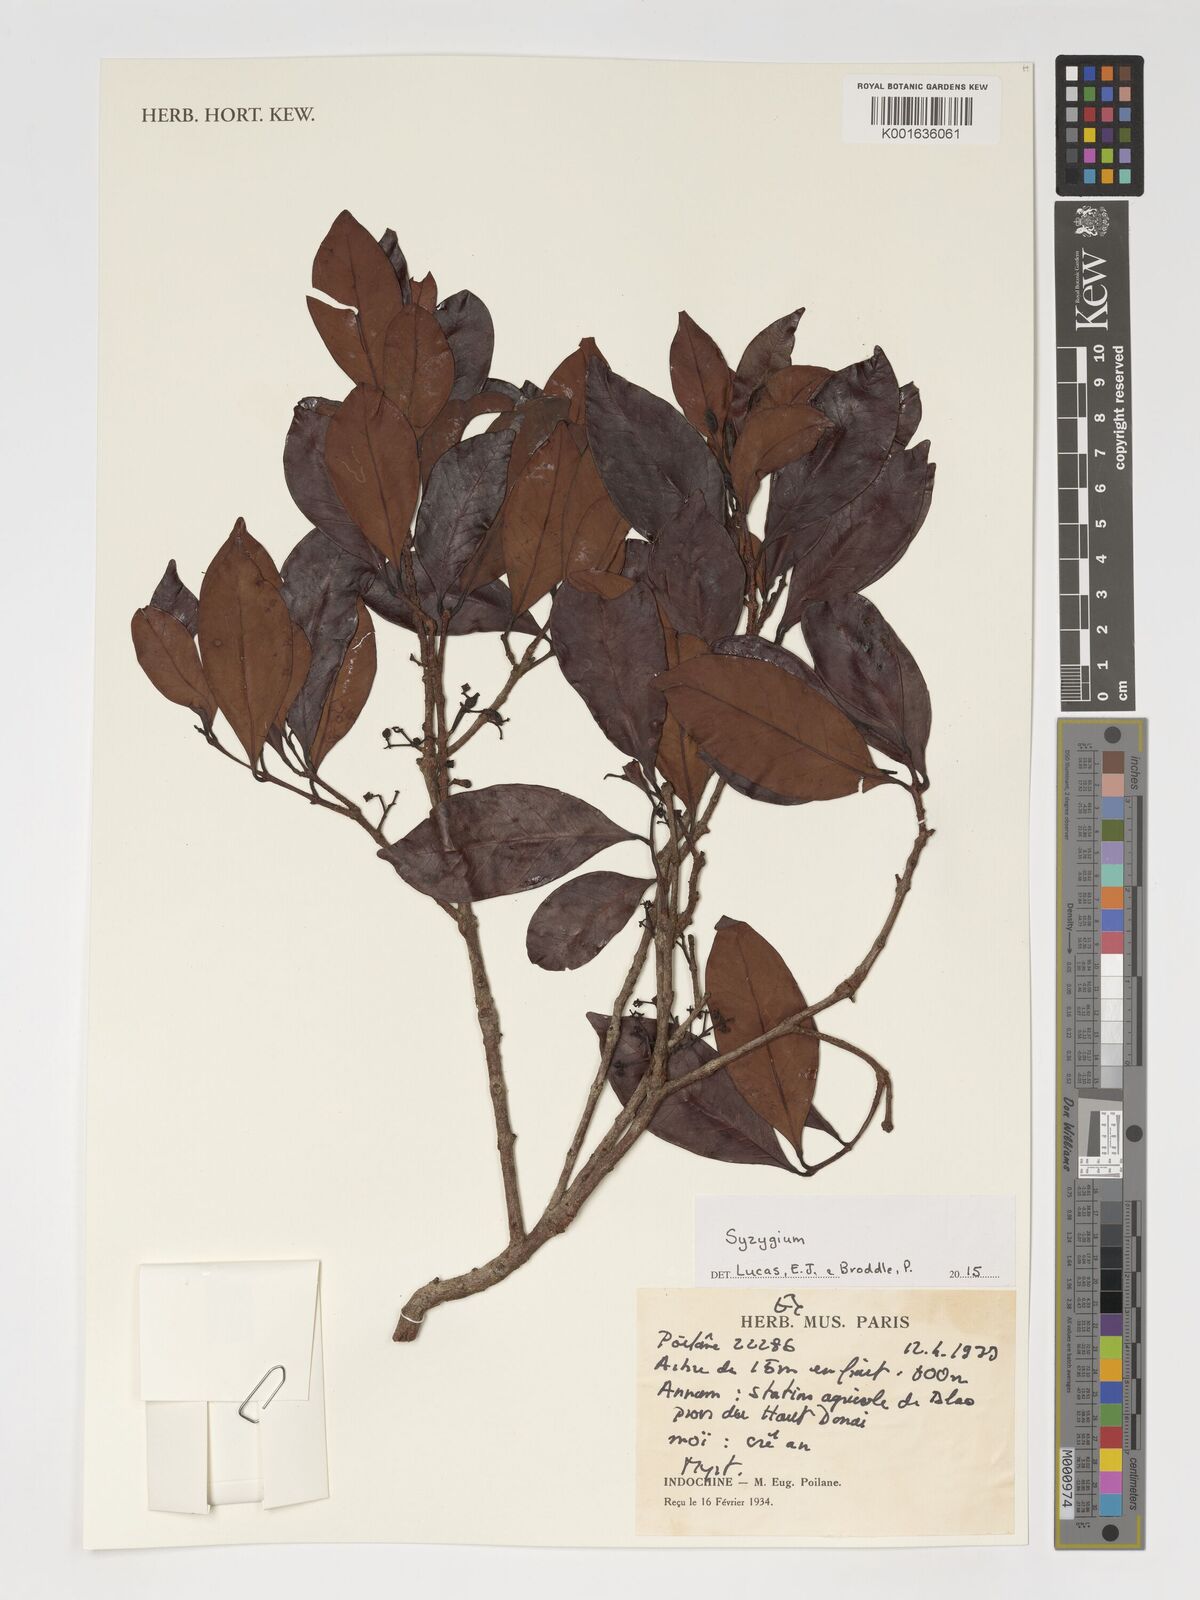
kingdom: Plantae
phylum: Tracheophyta
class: Magnoliopsida
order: Myrtales
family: Myrtaceae
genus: Syzygium
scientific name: Syzygium
